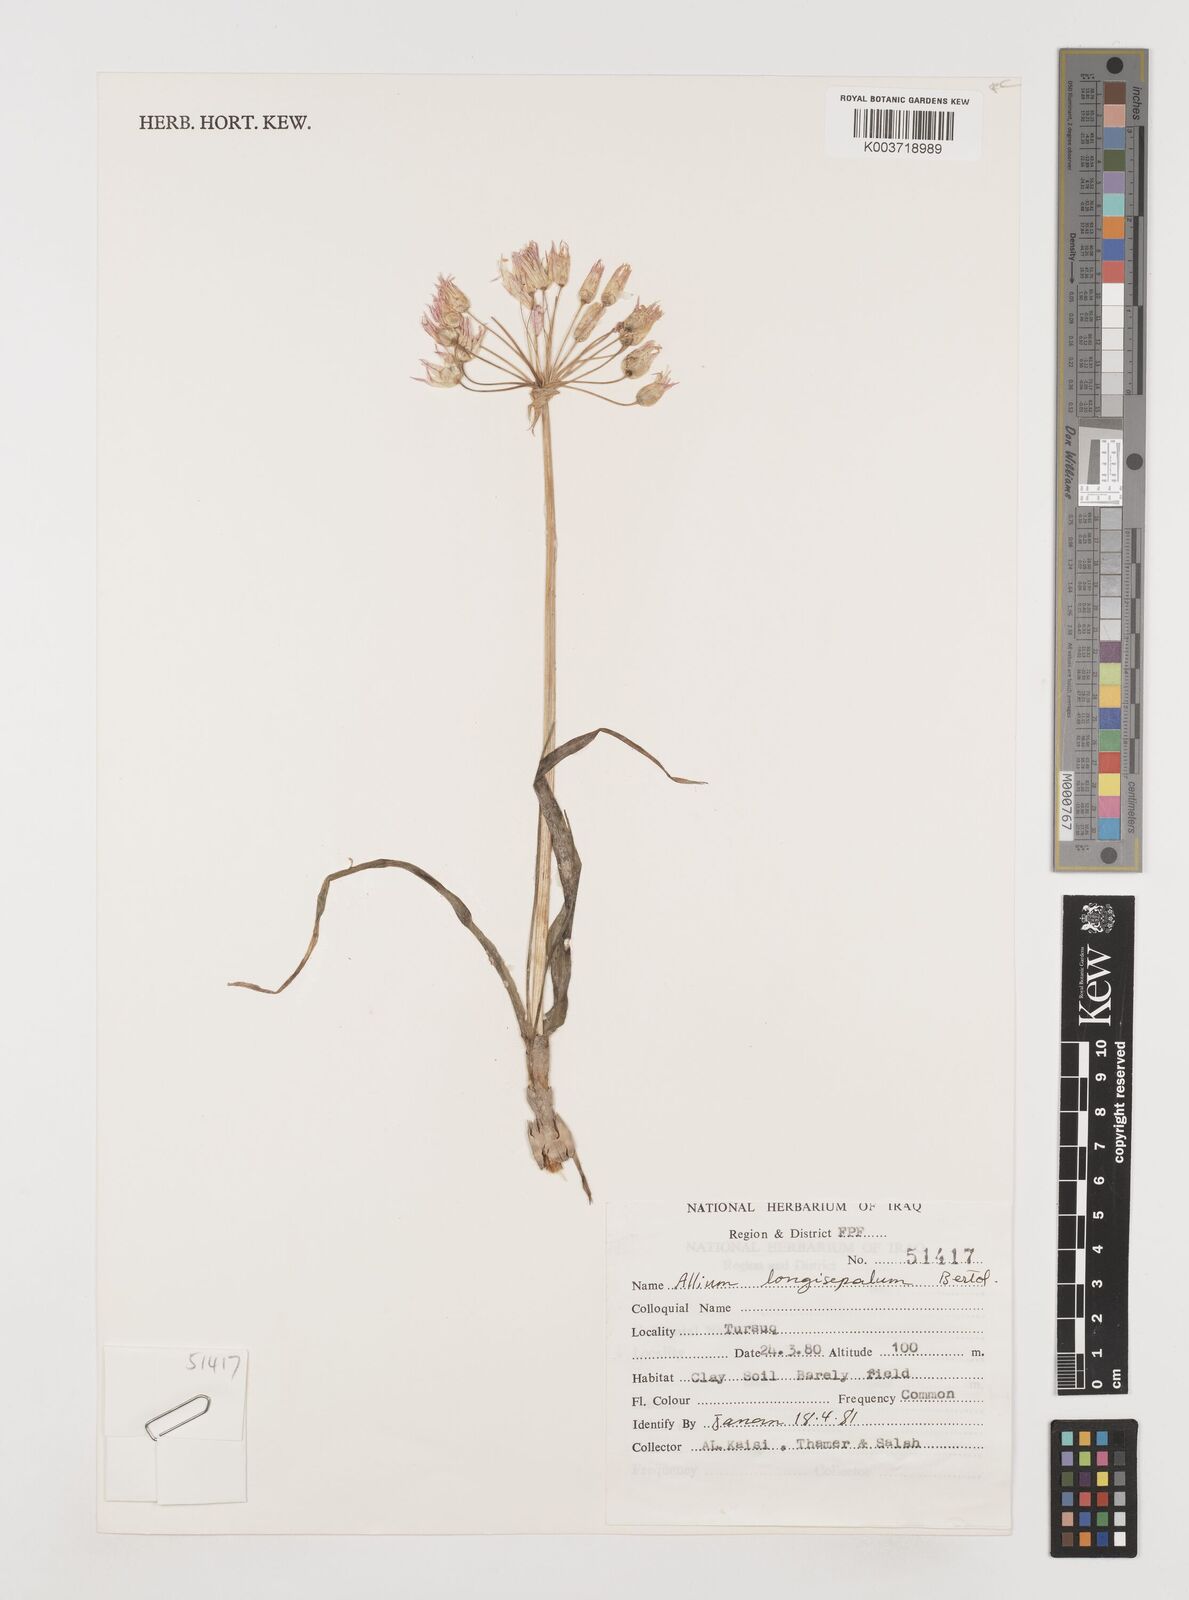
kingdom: Plantae
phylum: Tracheophyta
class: Liliopsida
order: Asparagales
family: Amaryllidaceae
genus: Allium
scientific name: Allium longisepalum
